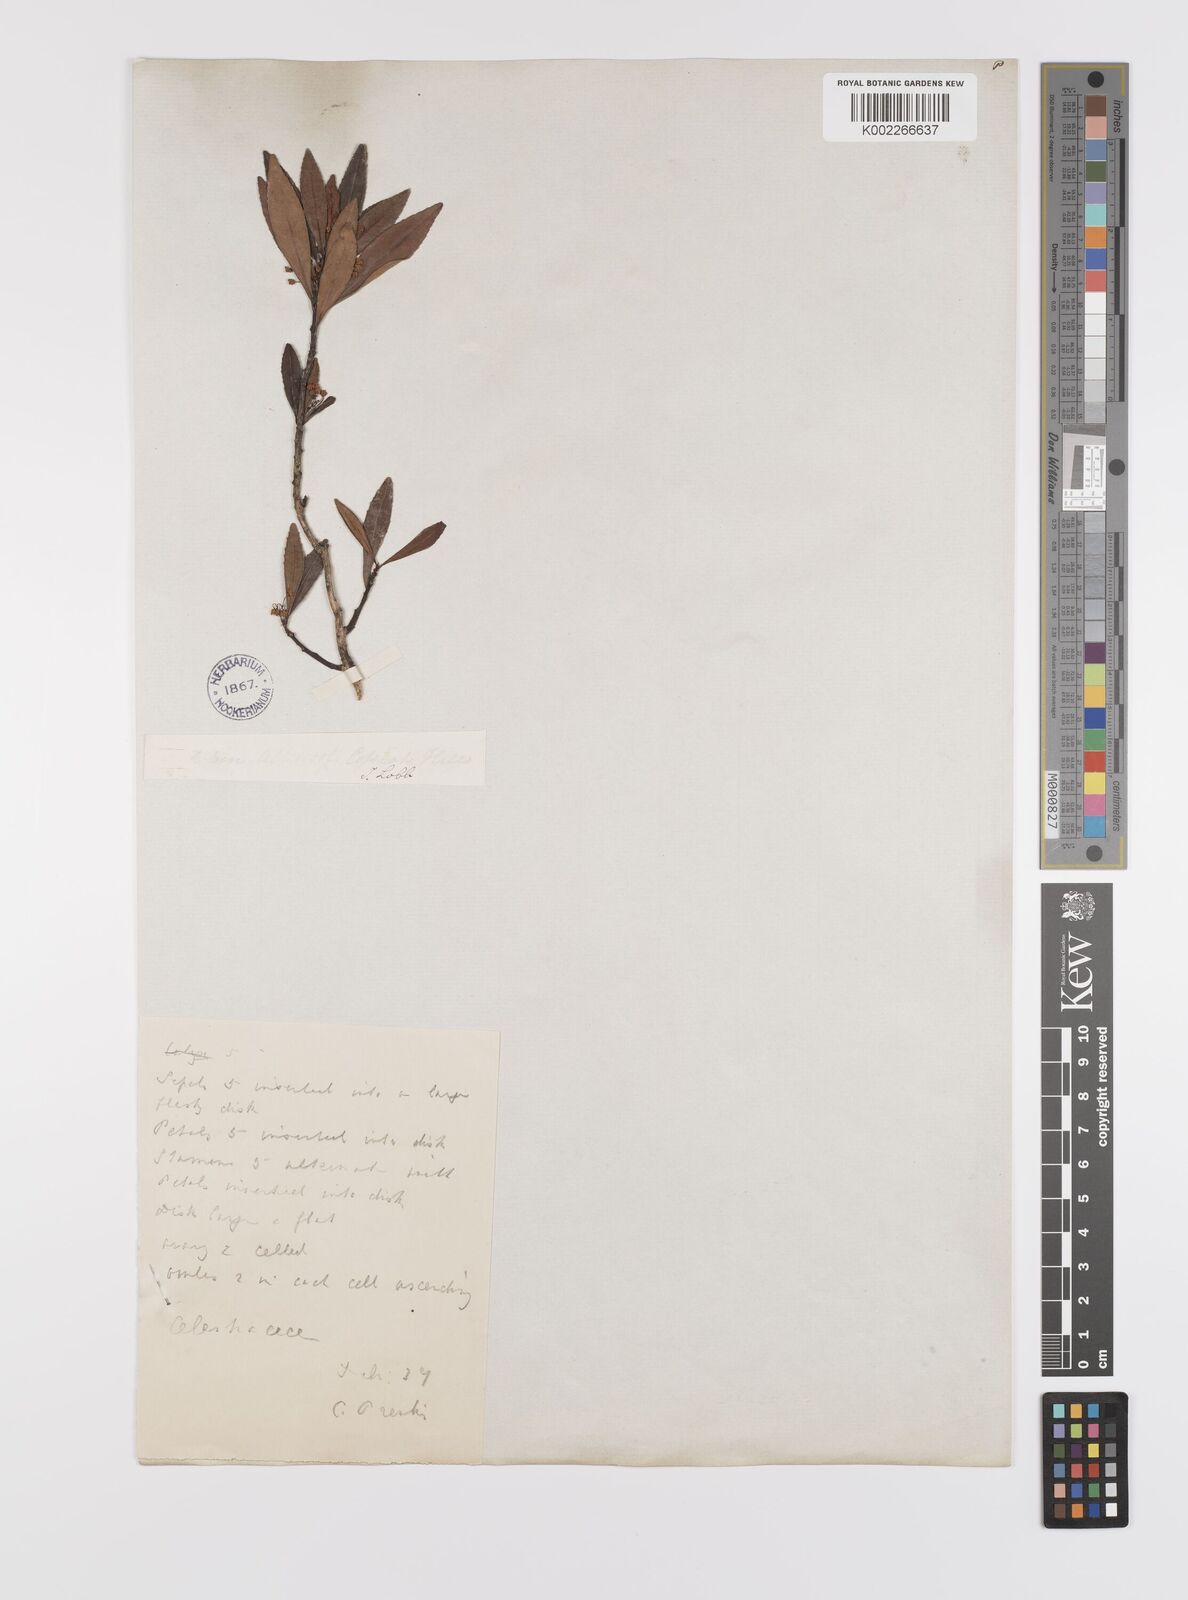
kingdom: Plantae
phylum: Tracheophyta
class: Magnoliopsida
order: Celastrales
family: Celastraceae
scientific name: Celastraceae
